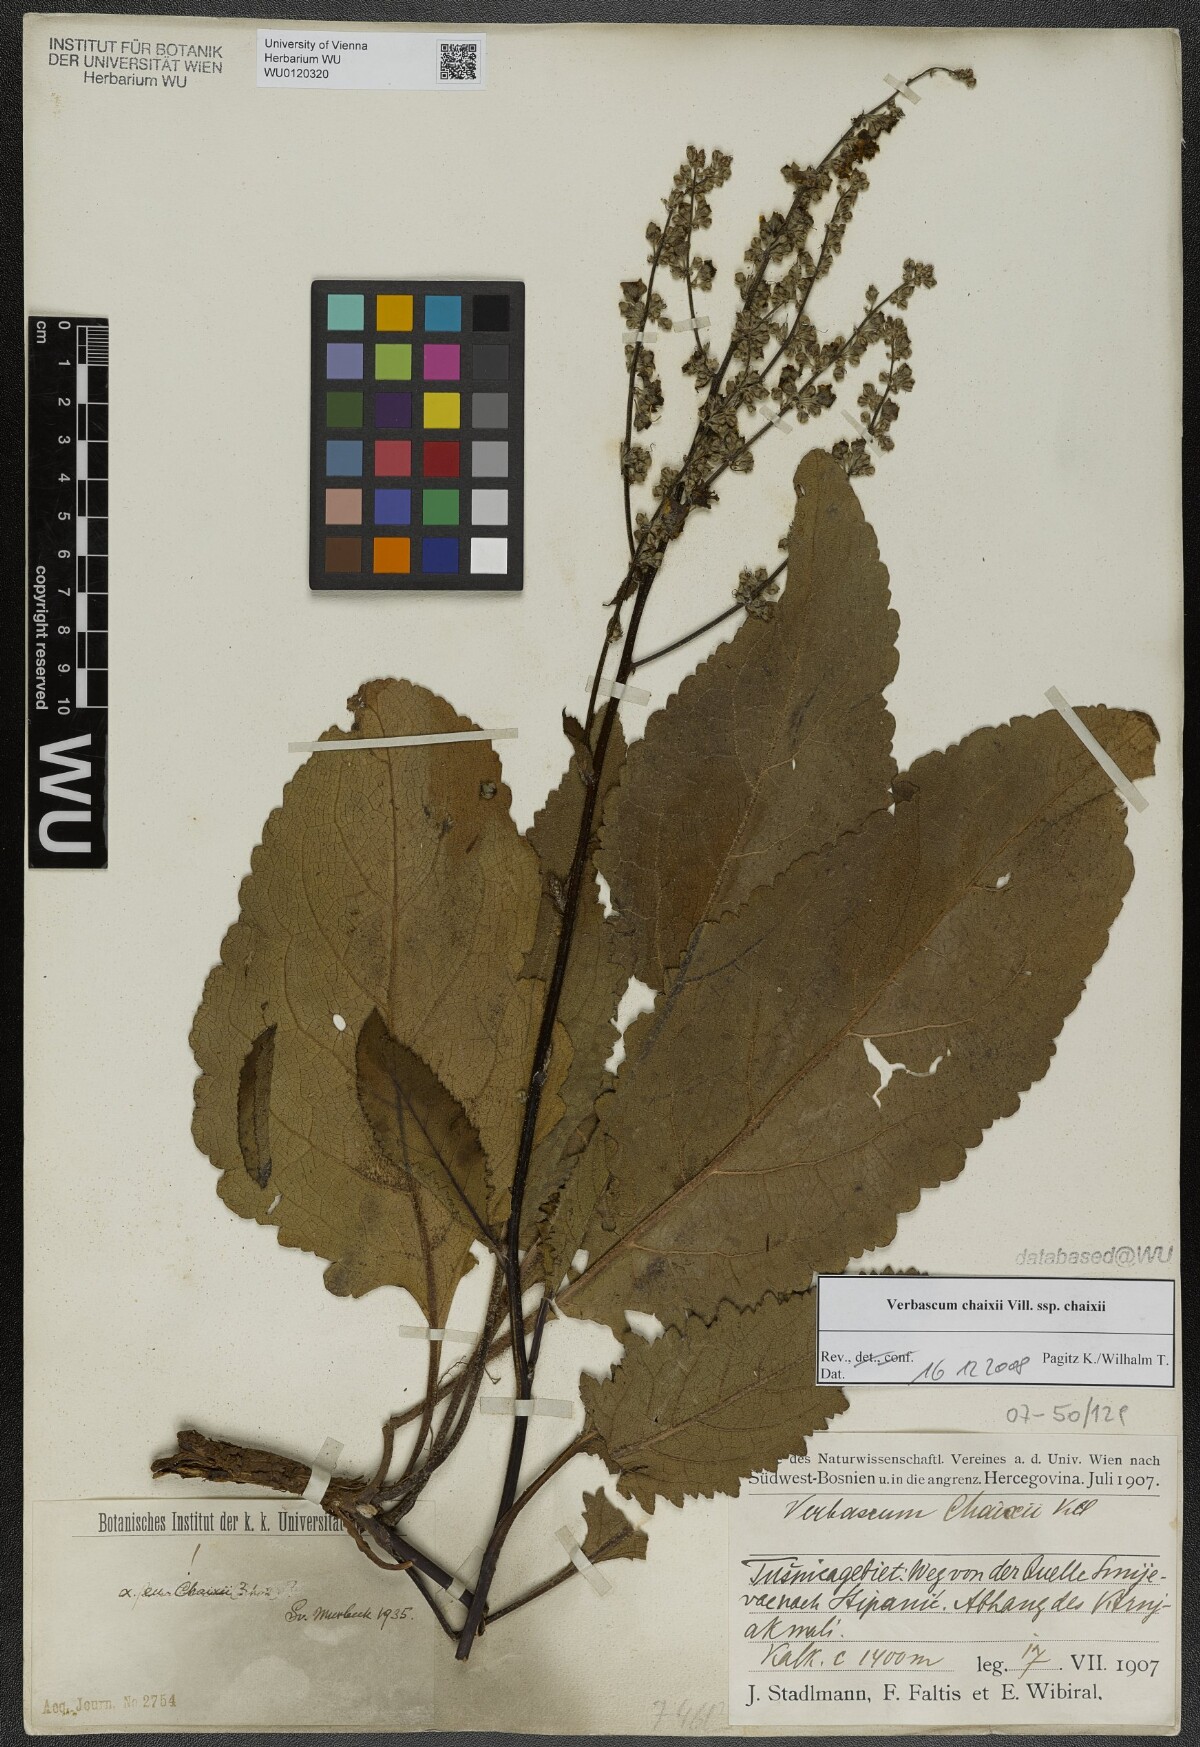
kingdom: Plantae
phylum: Tracheophyta
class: Magnoliopsida
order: Lamiales
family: Scrophulariaceae
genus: Verbascum
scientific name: Verbascum chaixii
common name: Nettle-leaved mullein
